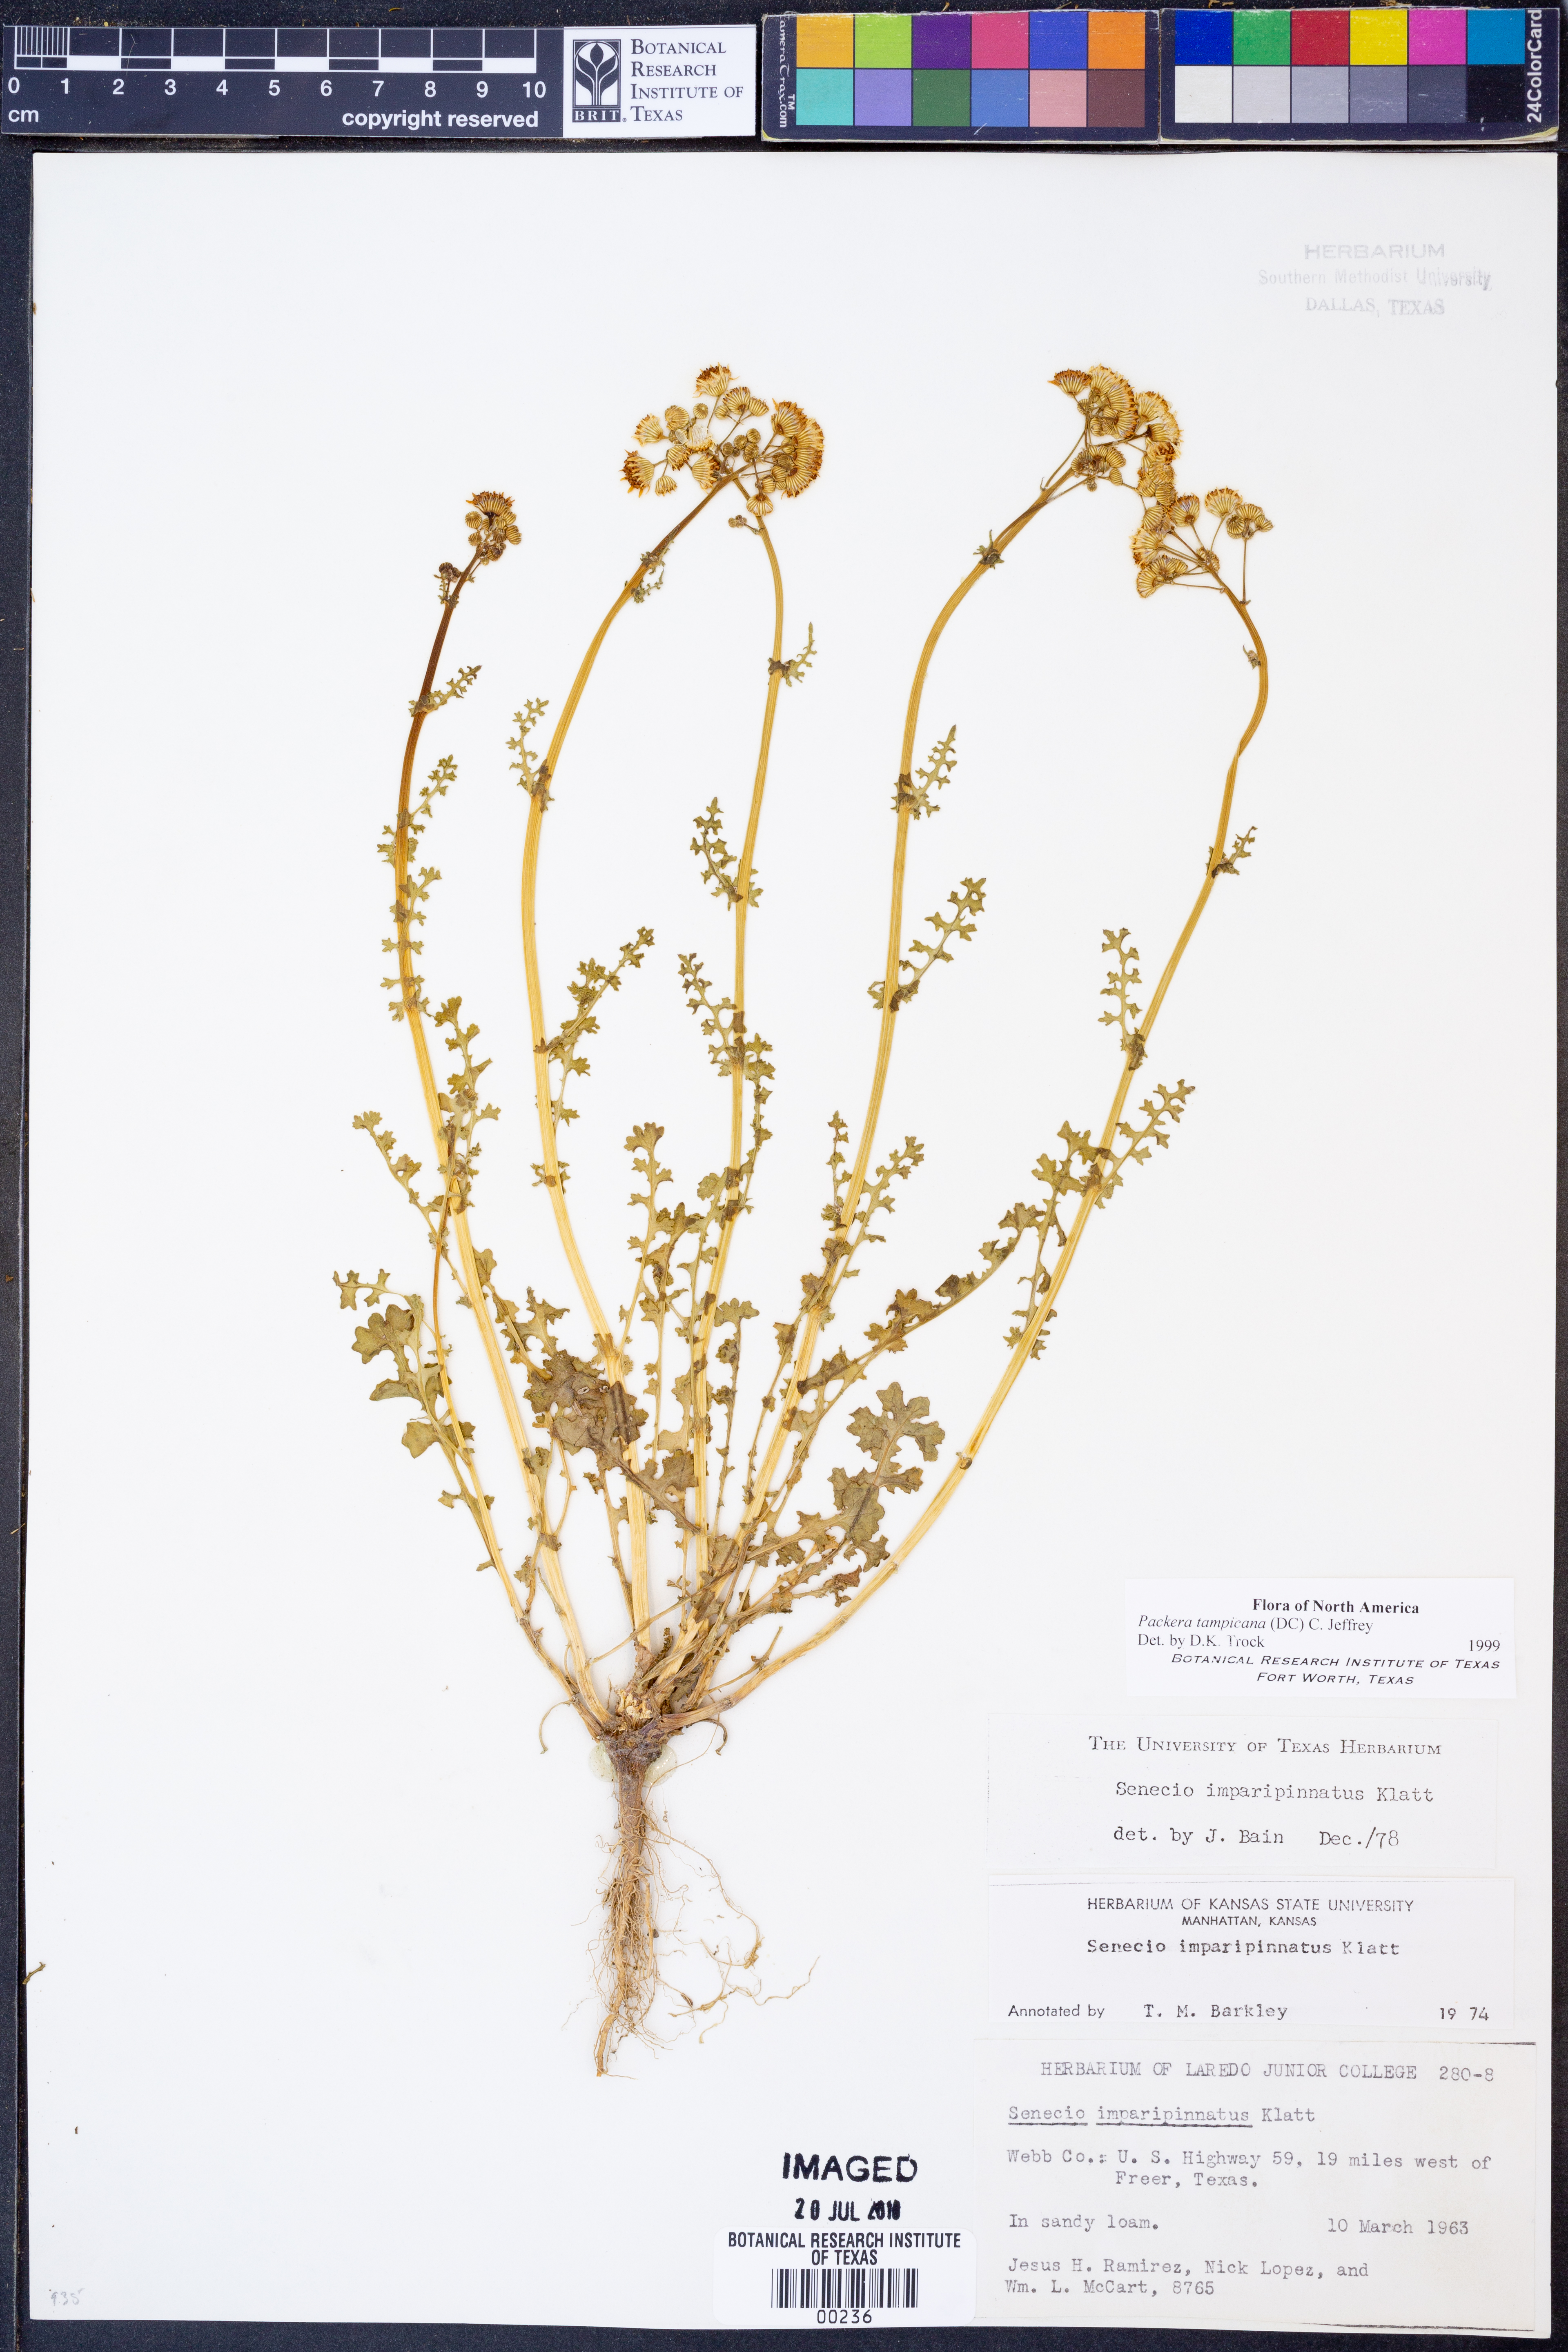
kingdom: Plantae
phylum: Tracheophyta
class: Magnoliopsida
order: Asterales
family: Asteraceae
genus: Packera
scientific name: Packera tampicana
